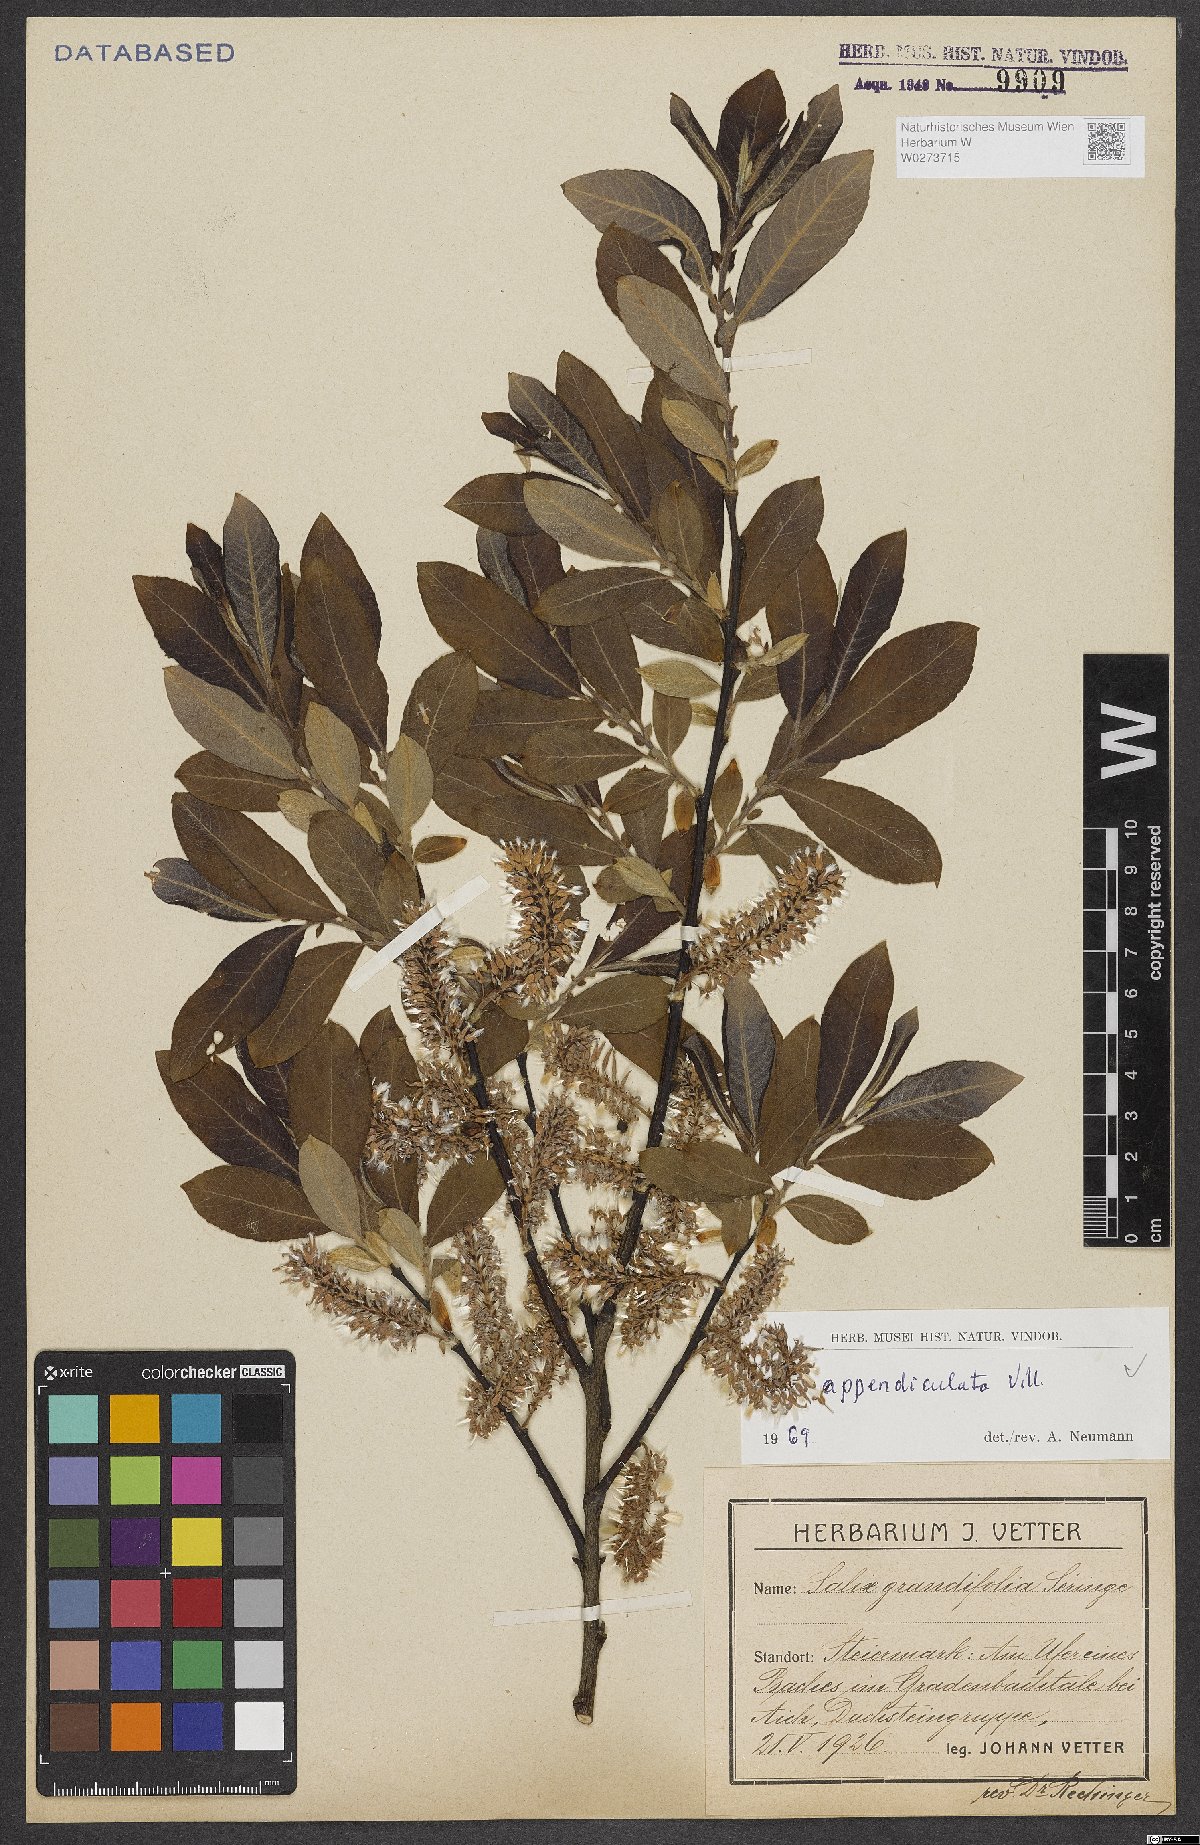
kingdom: Plantae
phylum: Tracheophyta
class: Magnoliopsida
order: Malpighiales
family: Salicaceae
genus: Salix
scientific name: Salix appendiculata
